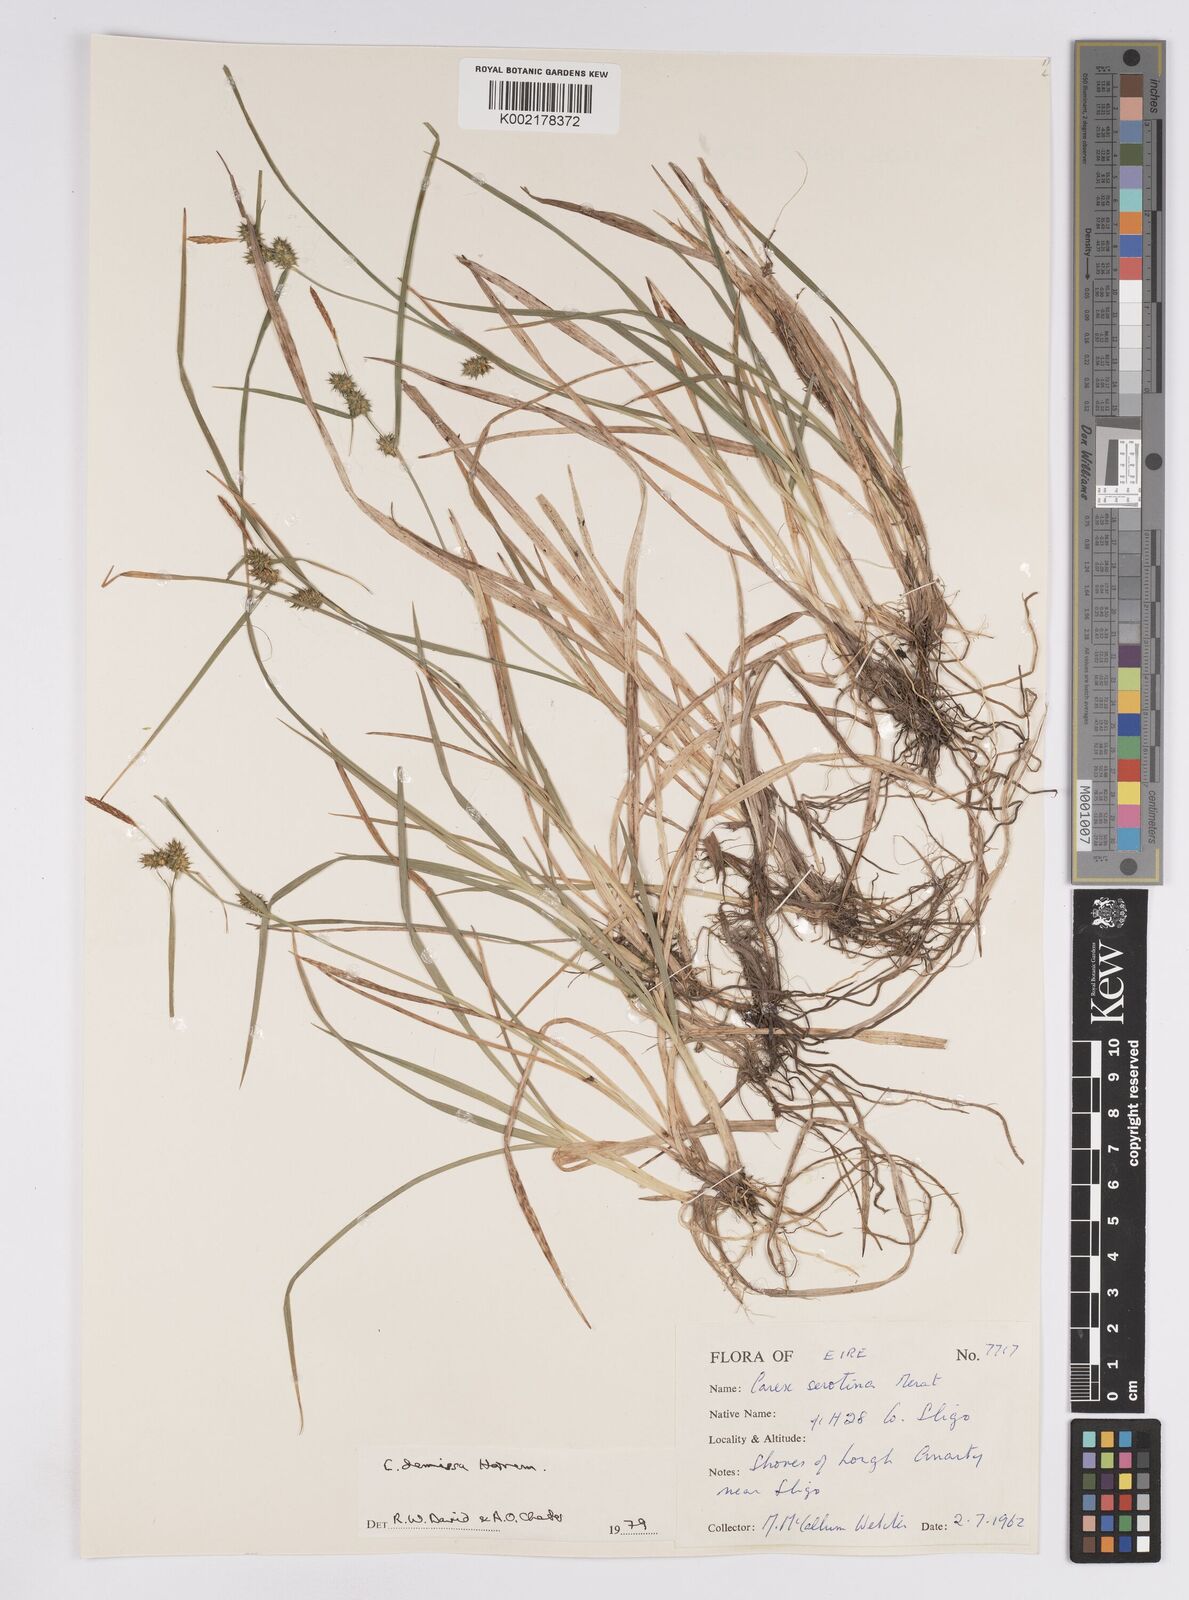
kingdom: Plantae
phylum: Tracheophyta
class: Liliopsida
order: Poales
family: Cyperaceae
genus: Carex
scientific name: Carex demissa
